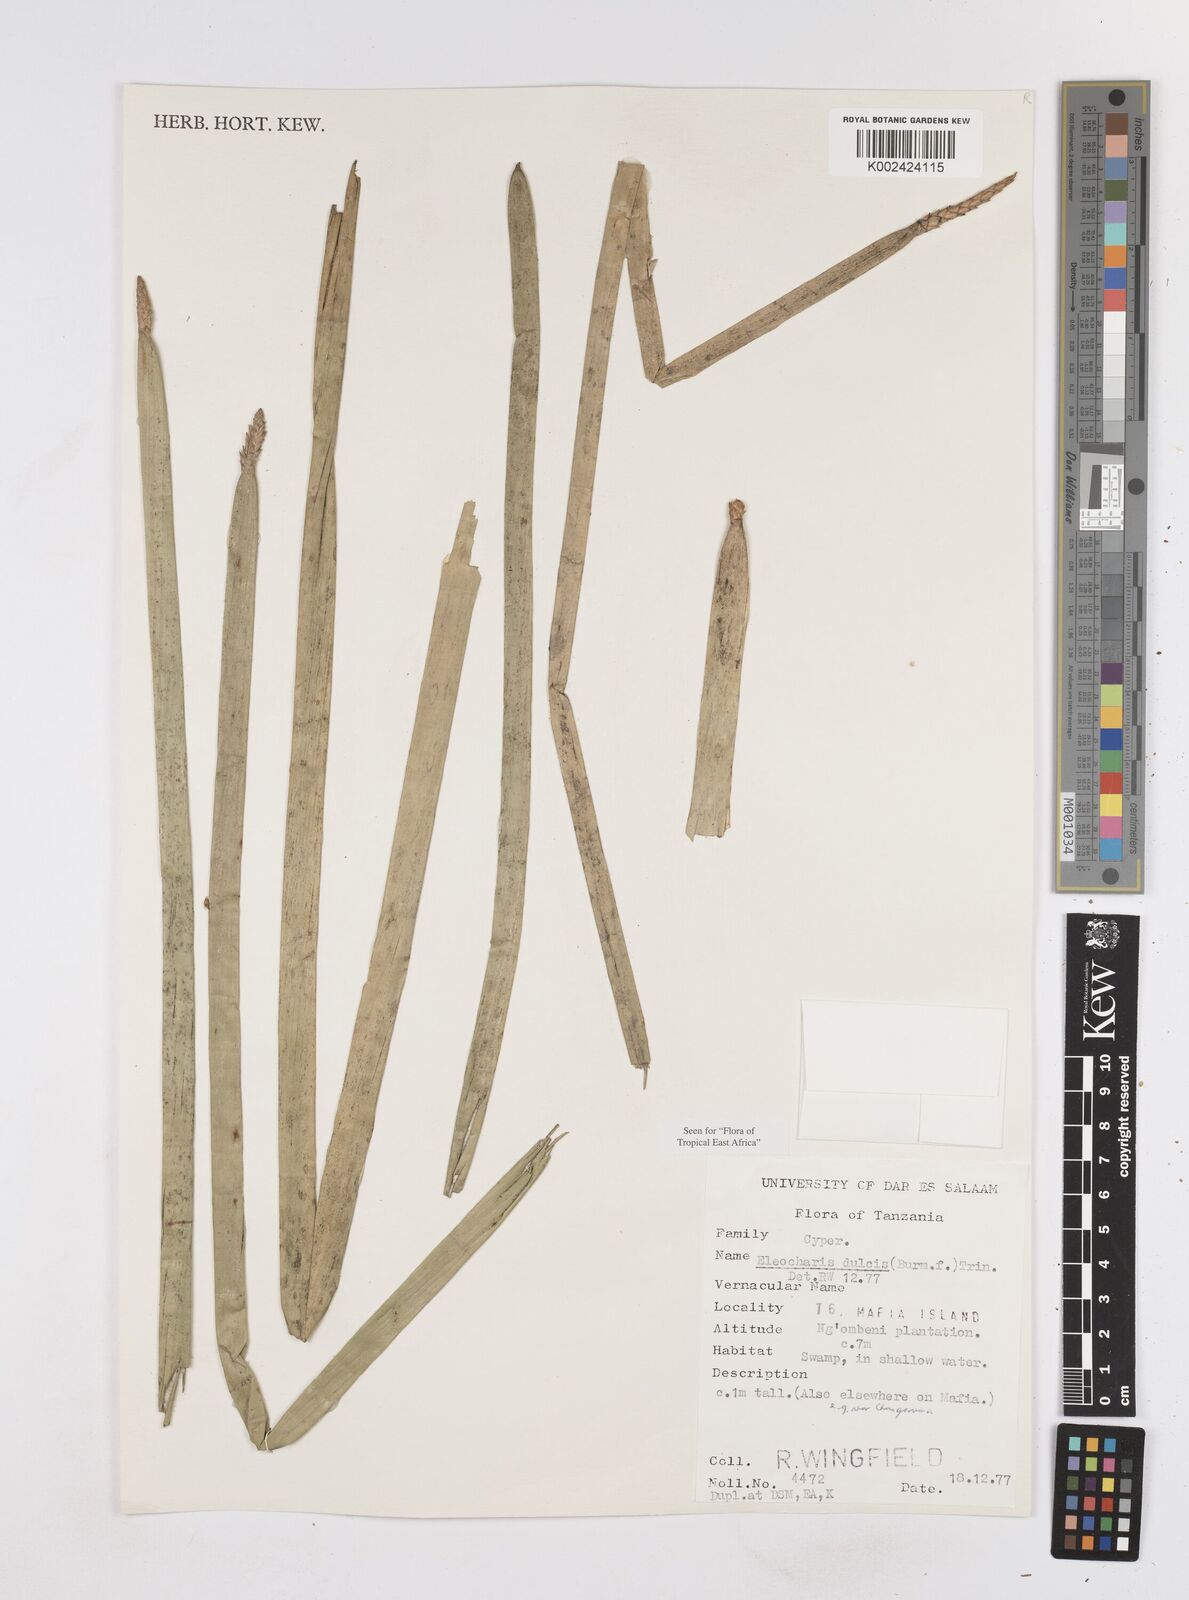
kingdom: Plantae
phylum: Tracheophyta
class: Liliopsida
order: Poales
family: Cyperaceae
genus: Eleocharis
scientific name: Eleocharis dulcis
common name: Chinese water chestnut
